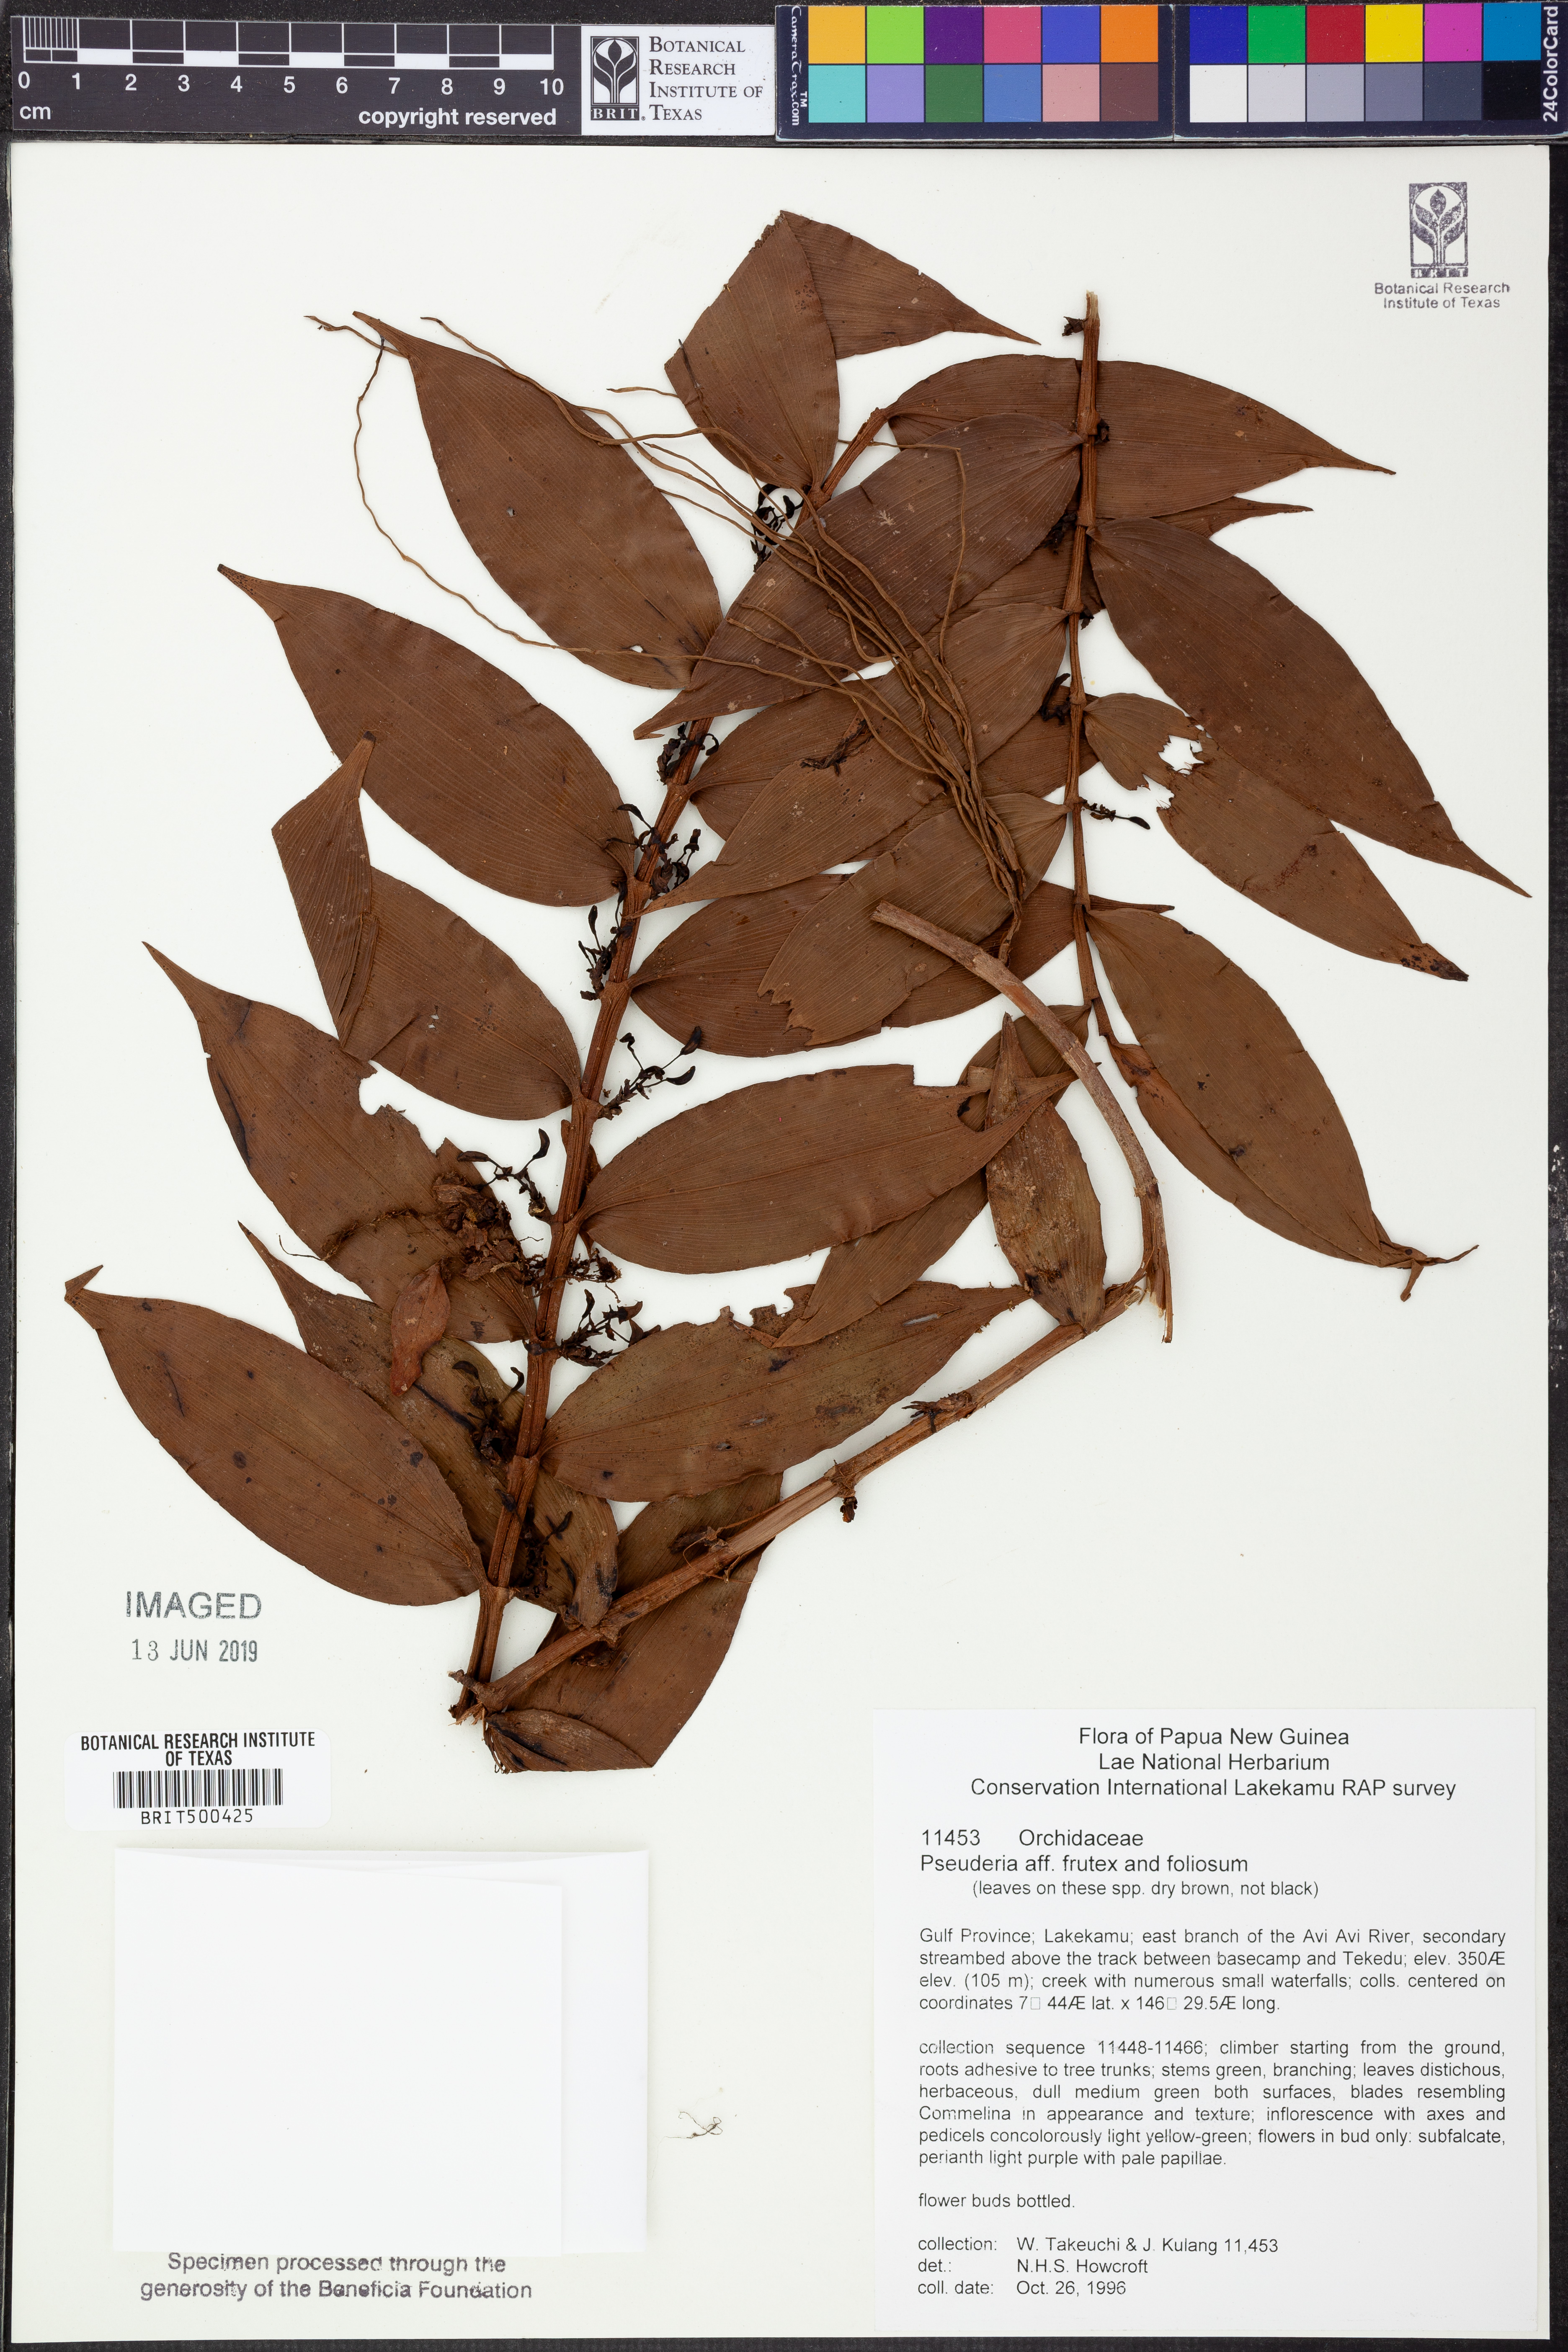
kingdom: Plantae
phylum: Tracheophyta
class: Liliopsida
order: Asparagales
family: Orchidaceae
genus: Pseuderia
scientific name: Pseuderia
